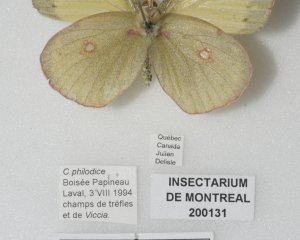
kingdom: Animalia
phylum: Arthropoda
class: Insecta
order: Lepidoptera
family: Pieridae
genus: Colias
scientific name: Colias philodice
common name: Clouded Sulphur
